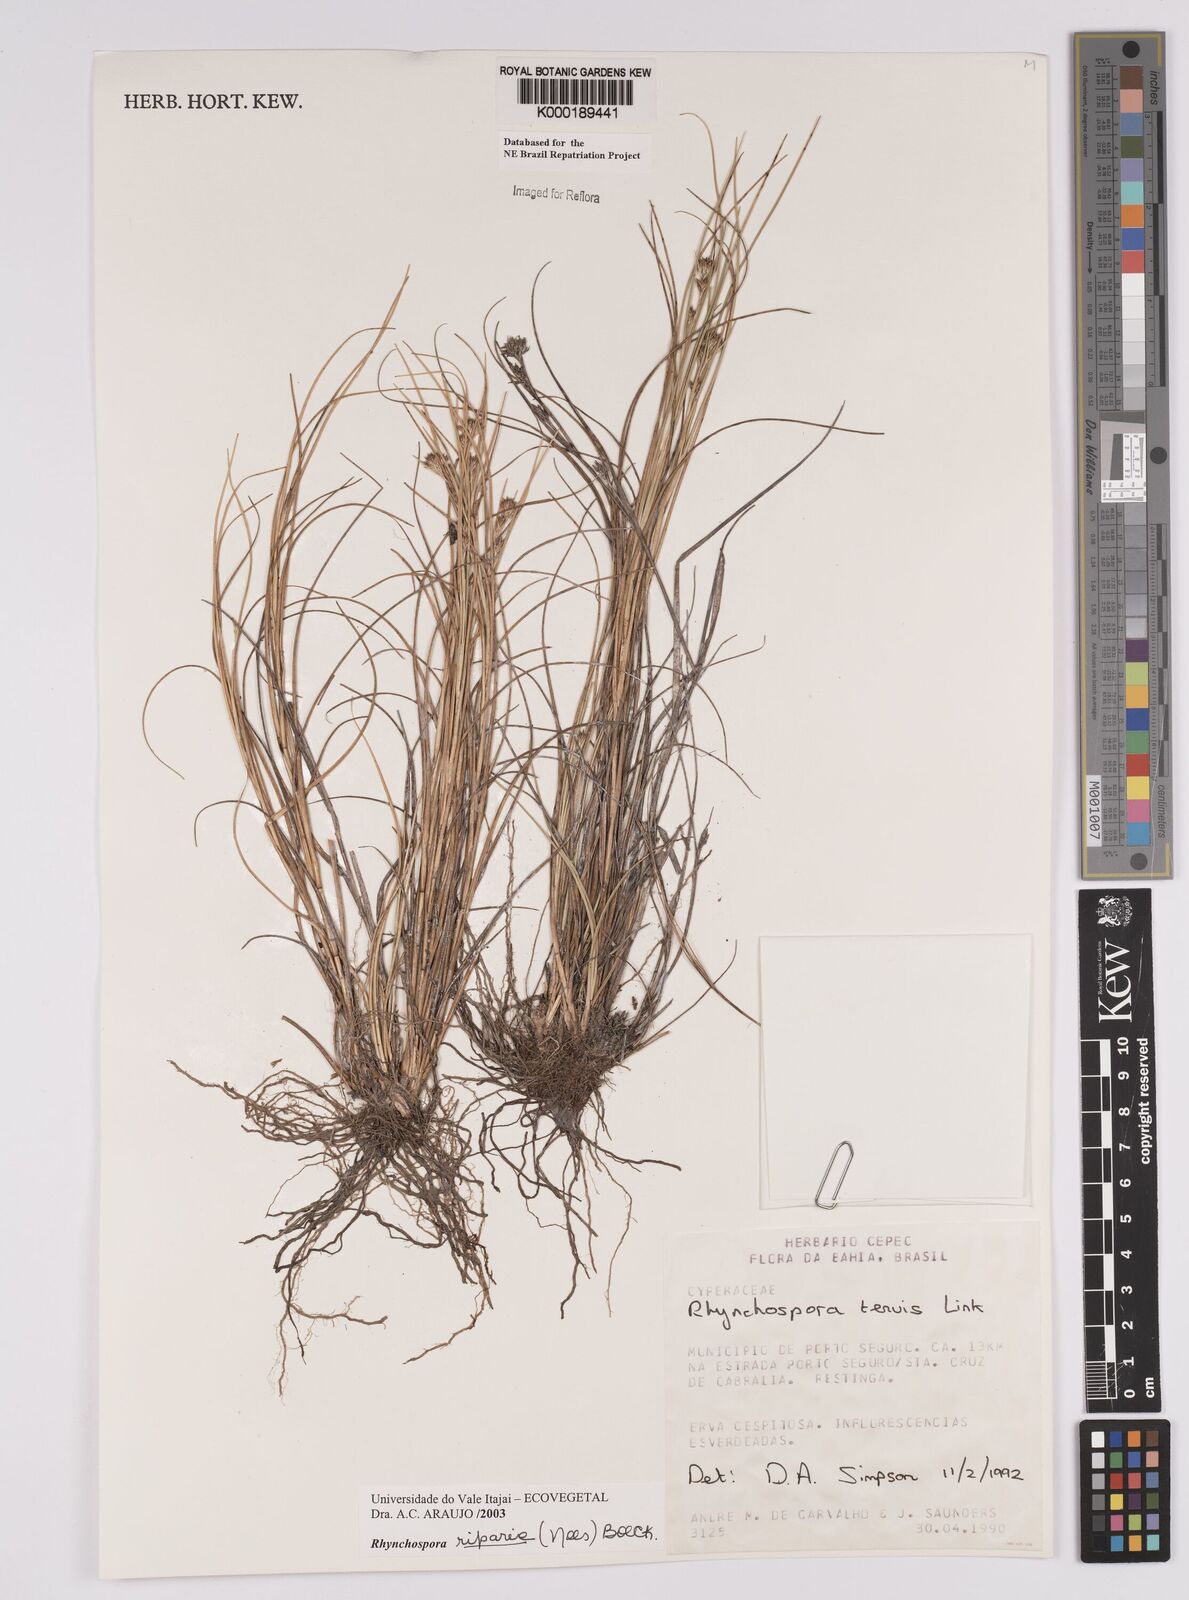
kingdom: Plantae
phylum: Tracheophyta
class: Liliopsida
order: Poales
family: Cyperaceae
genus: Rhynchospora
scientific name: Rhynchospora riparia
